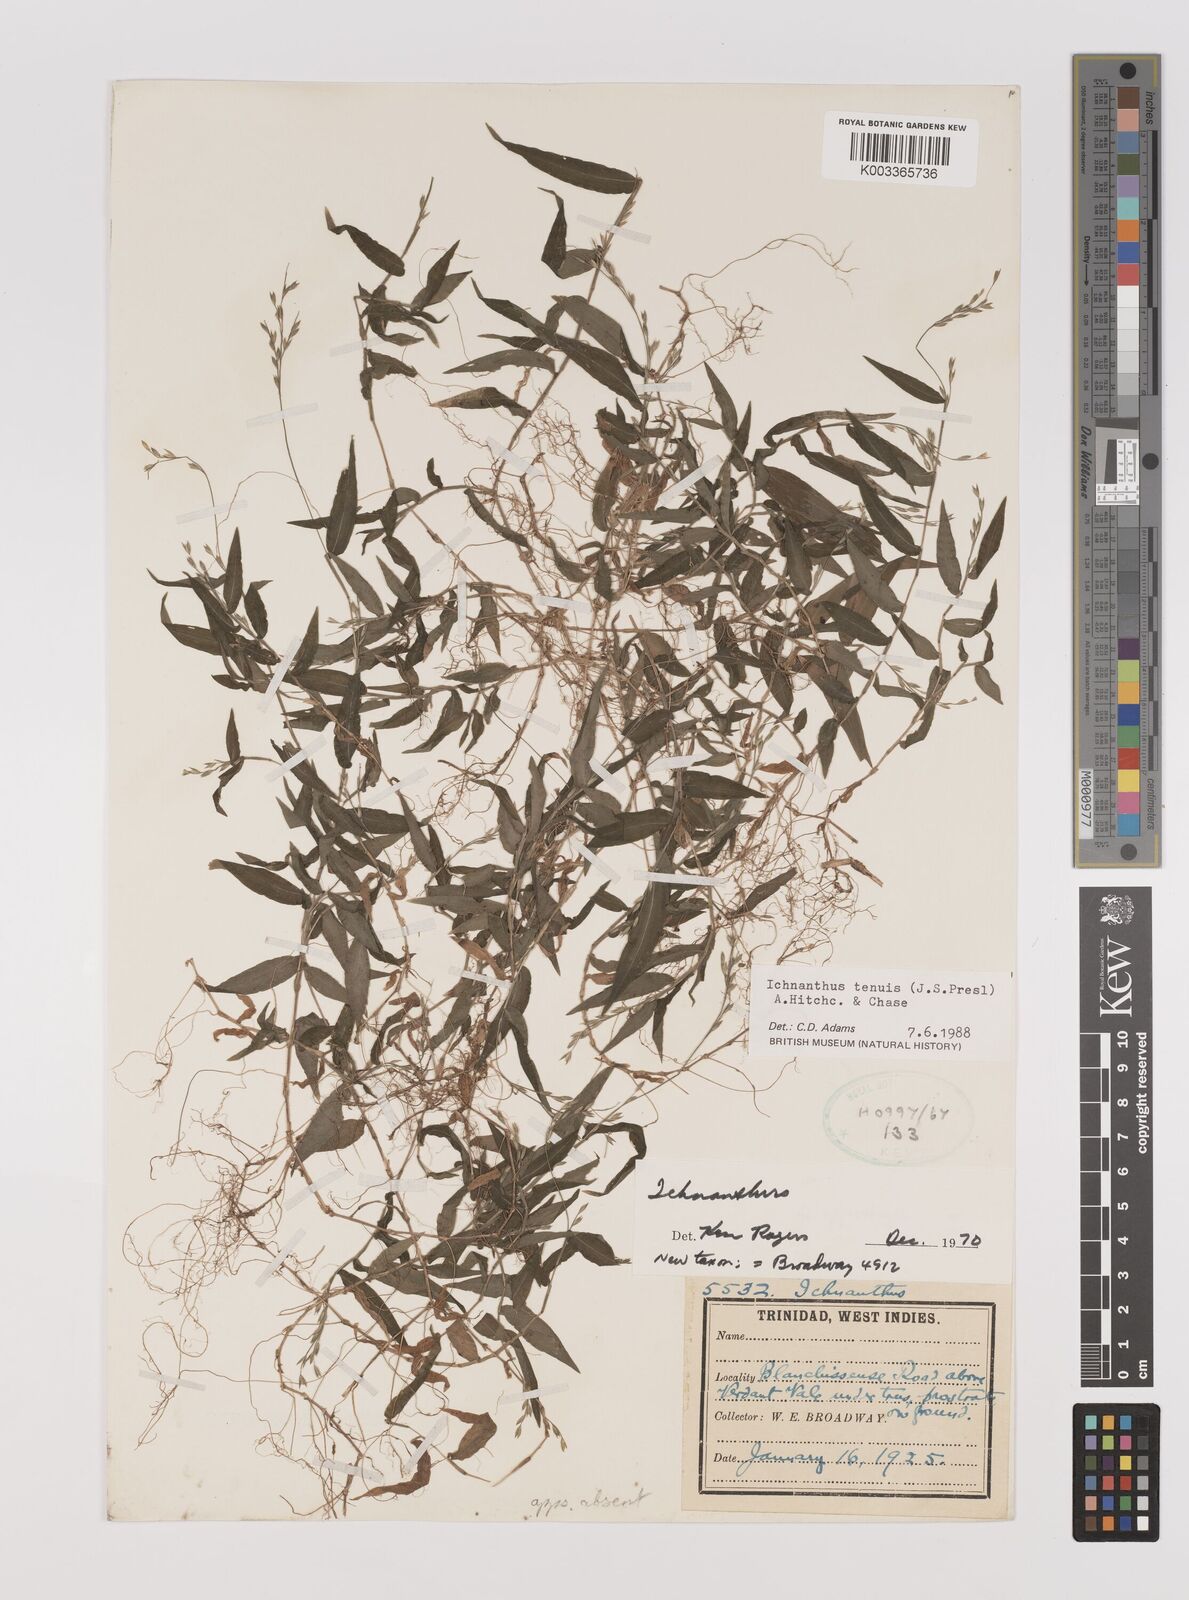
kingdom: Plantae
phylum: Tracheophyta
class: Liliopsida
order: Poales
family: Poaceae
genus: Ichnanthus
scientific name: Ichnanthus tenuis
